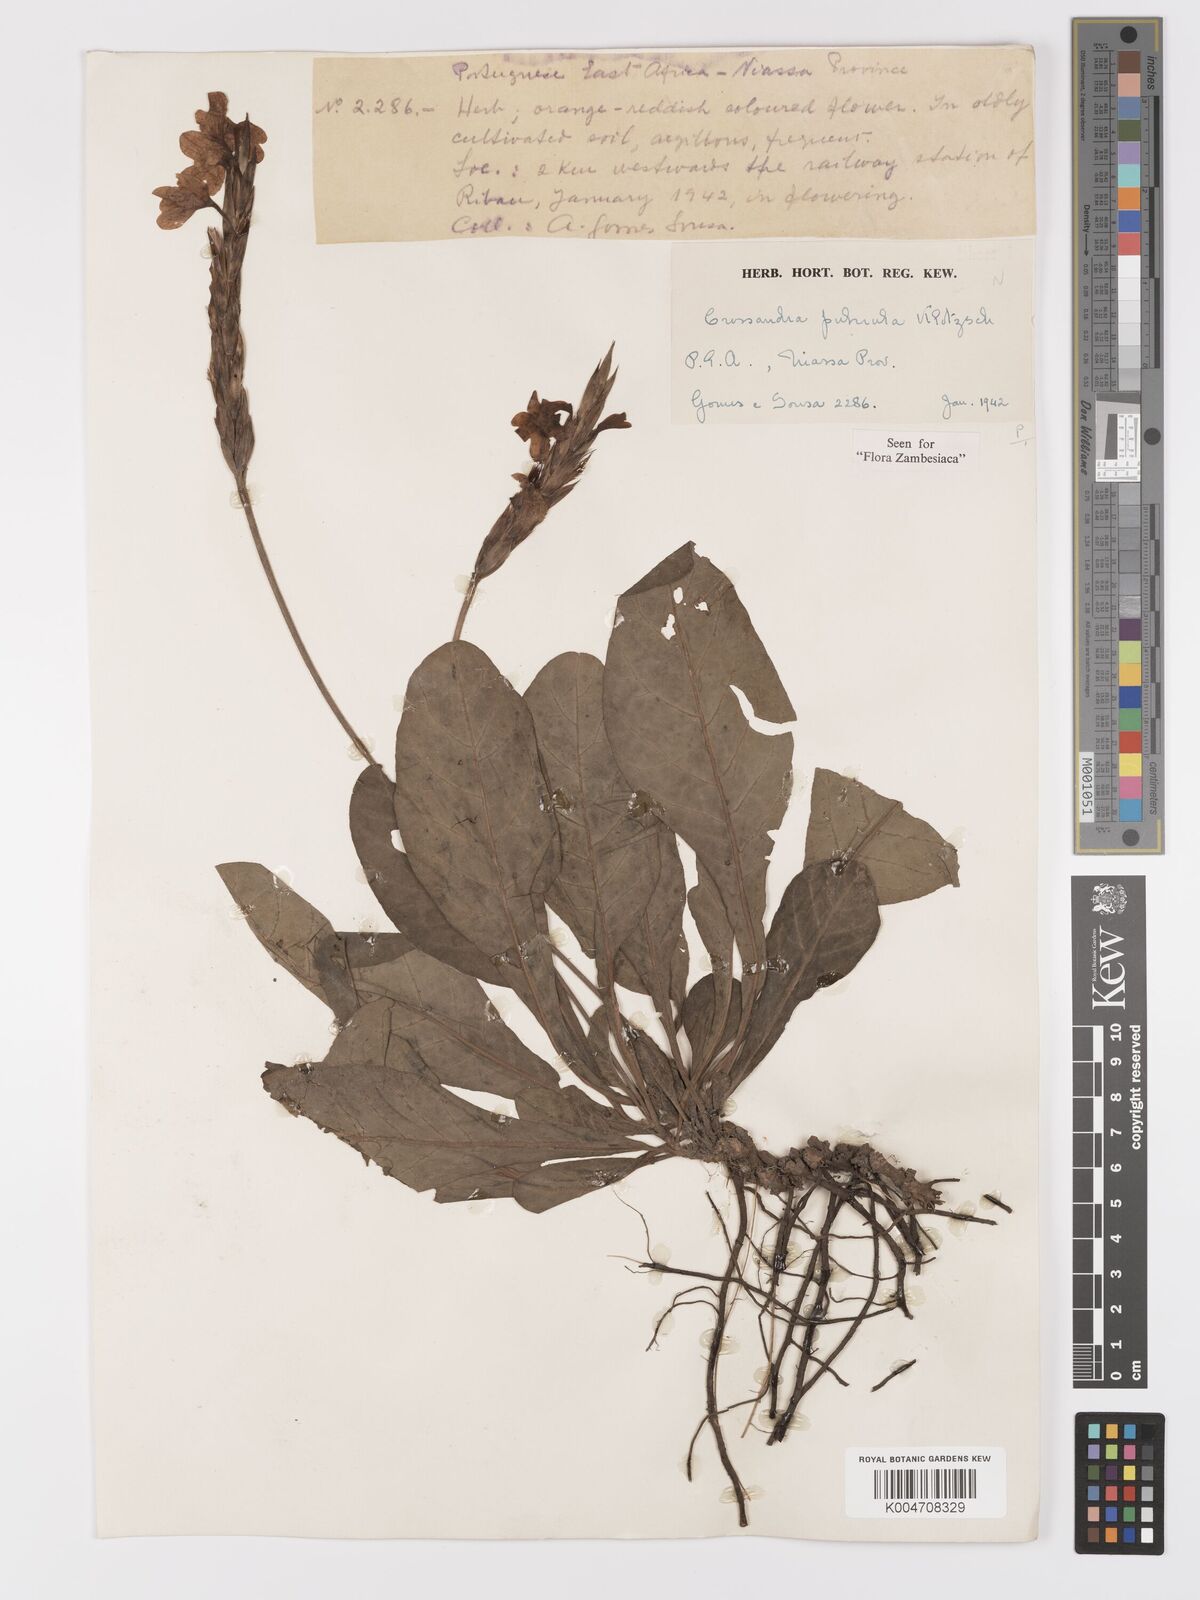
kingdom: Plantae
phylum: Tracheophyta
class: Magnoliopsida
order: Lamiales
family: Acanthaceae
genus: Crossandra
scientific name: Crossandra puberula
